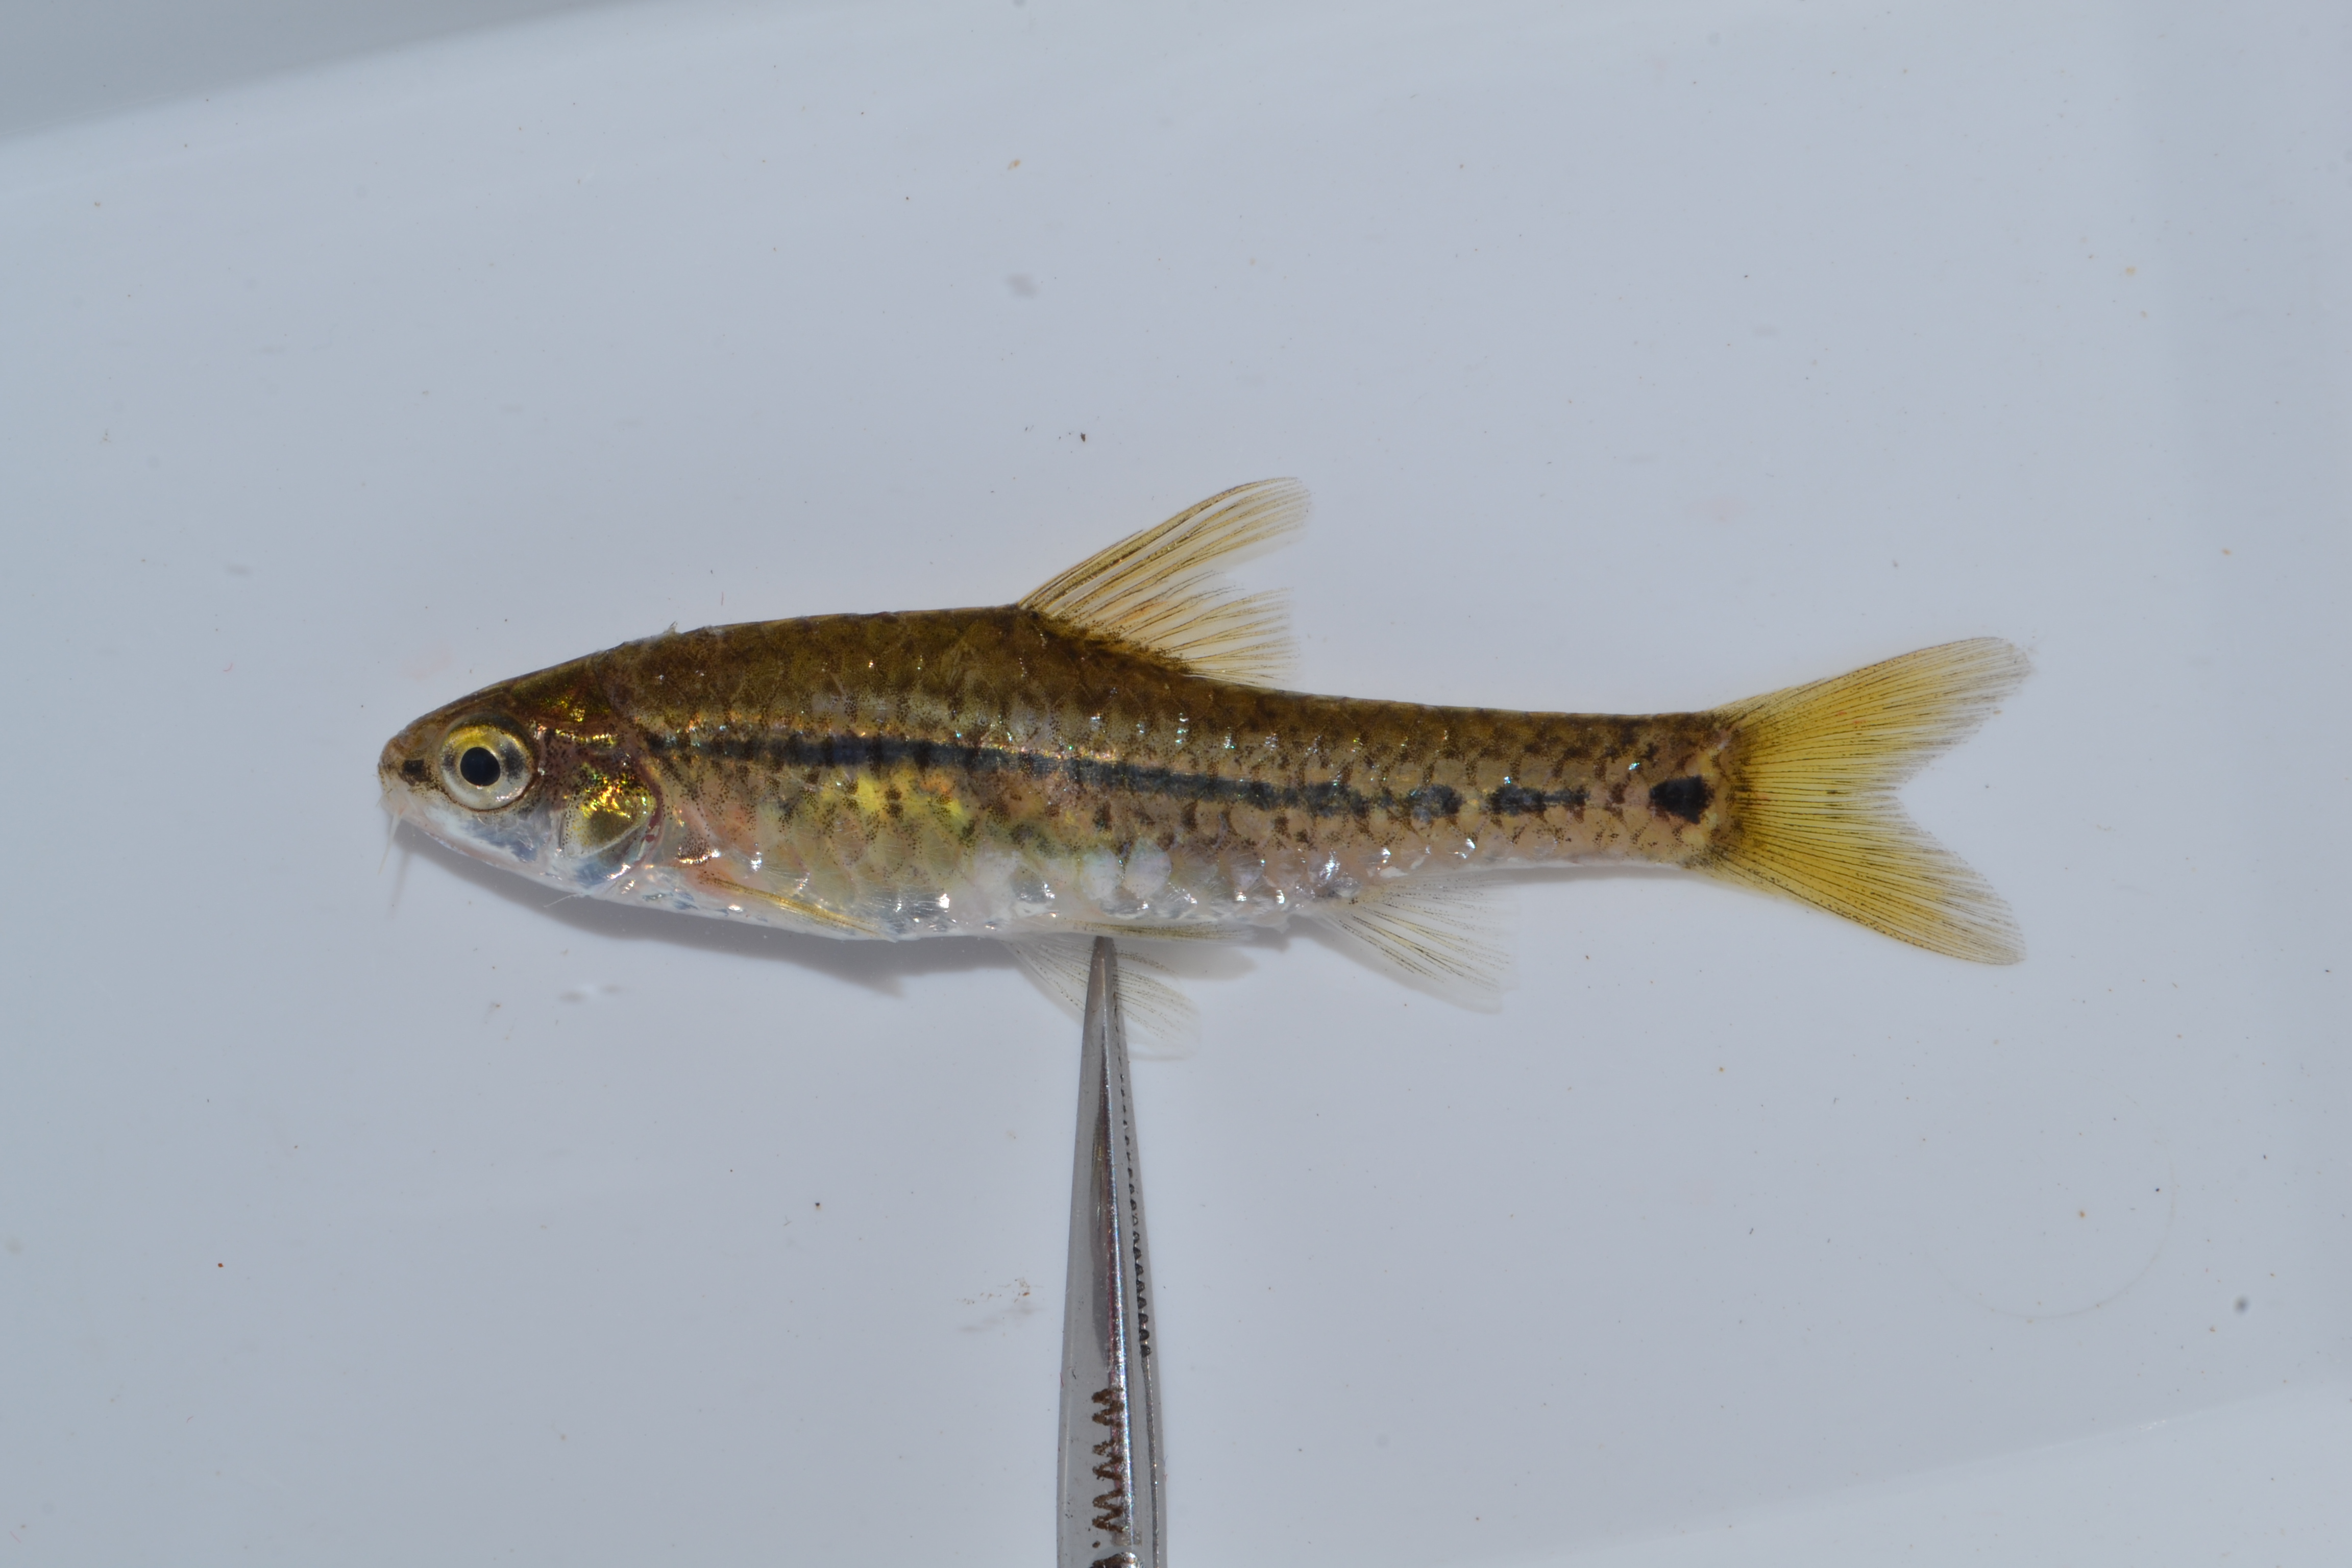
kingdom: Animalia
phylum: Chordata
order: Cypriniformes
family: Cyprinidae
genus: Enteromius
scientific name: Enteromius
